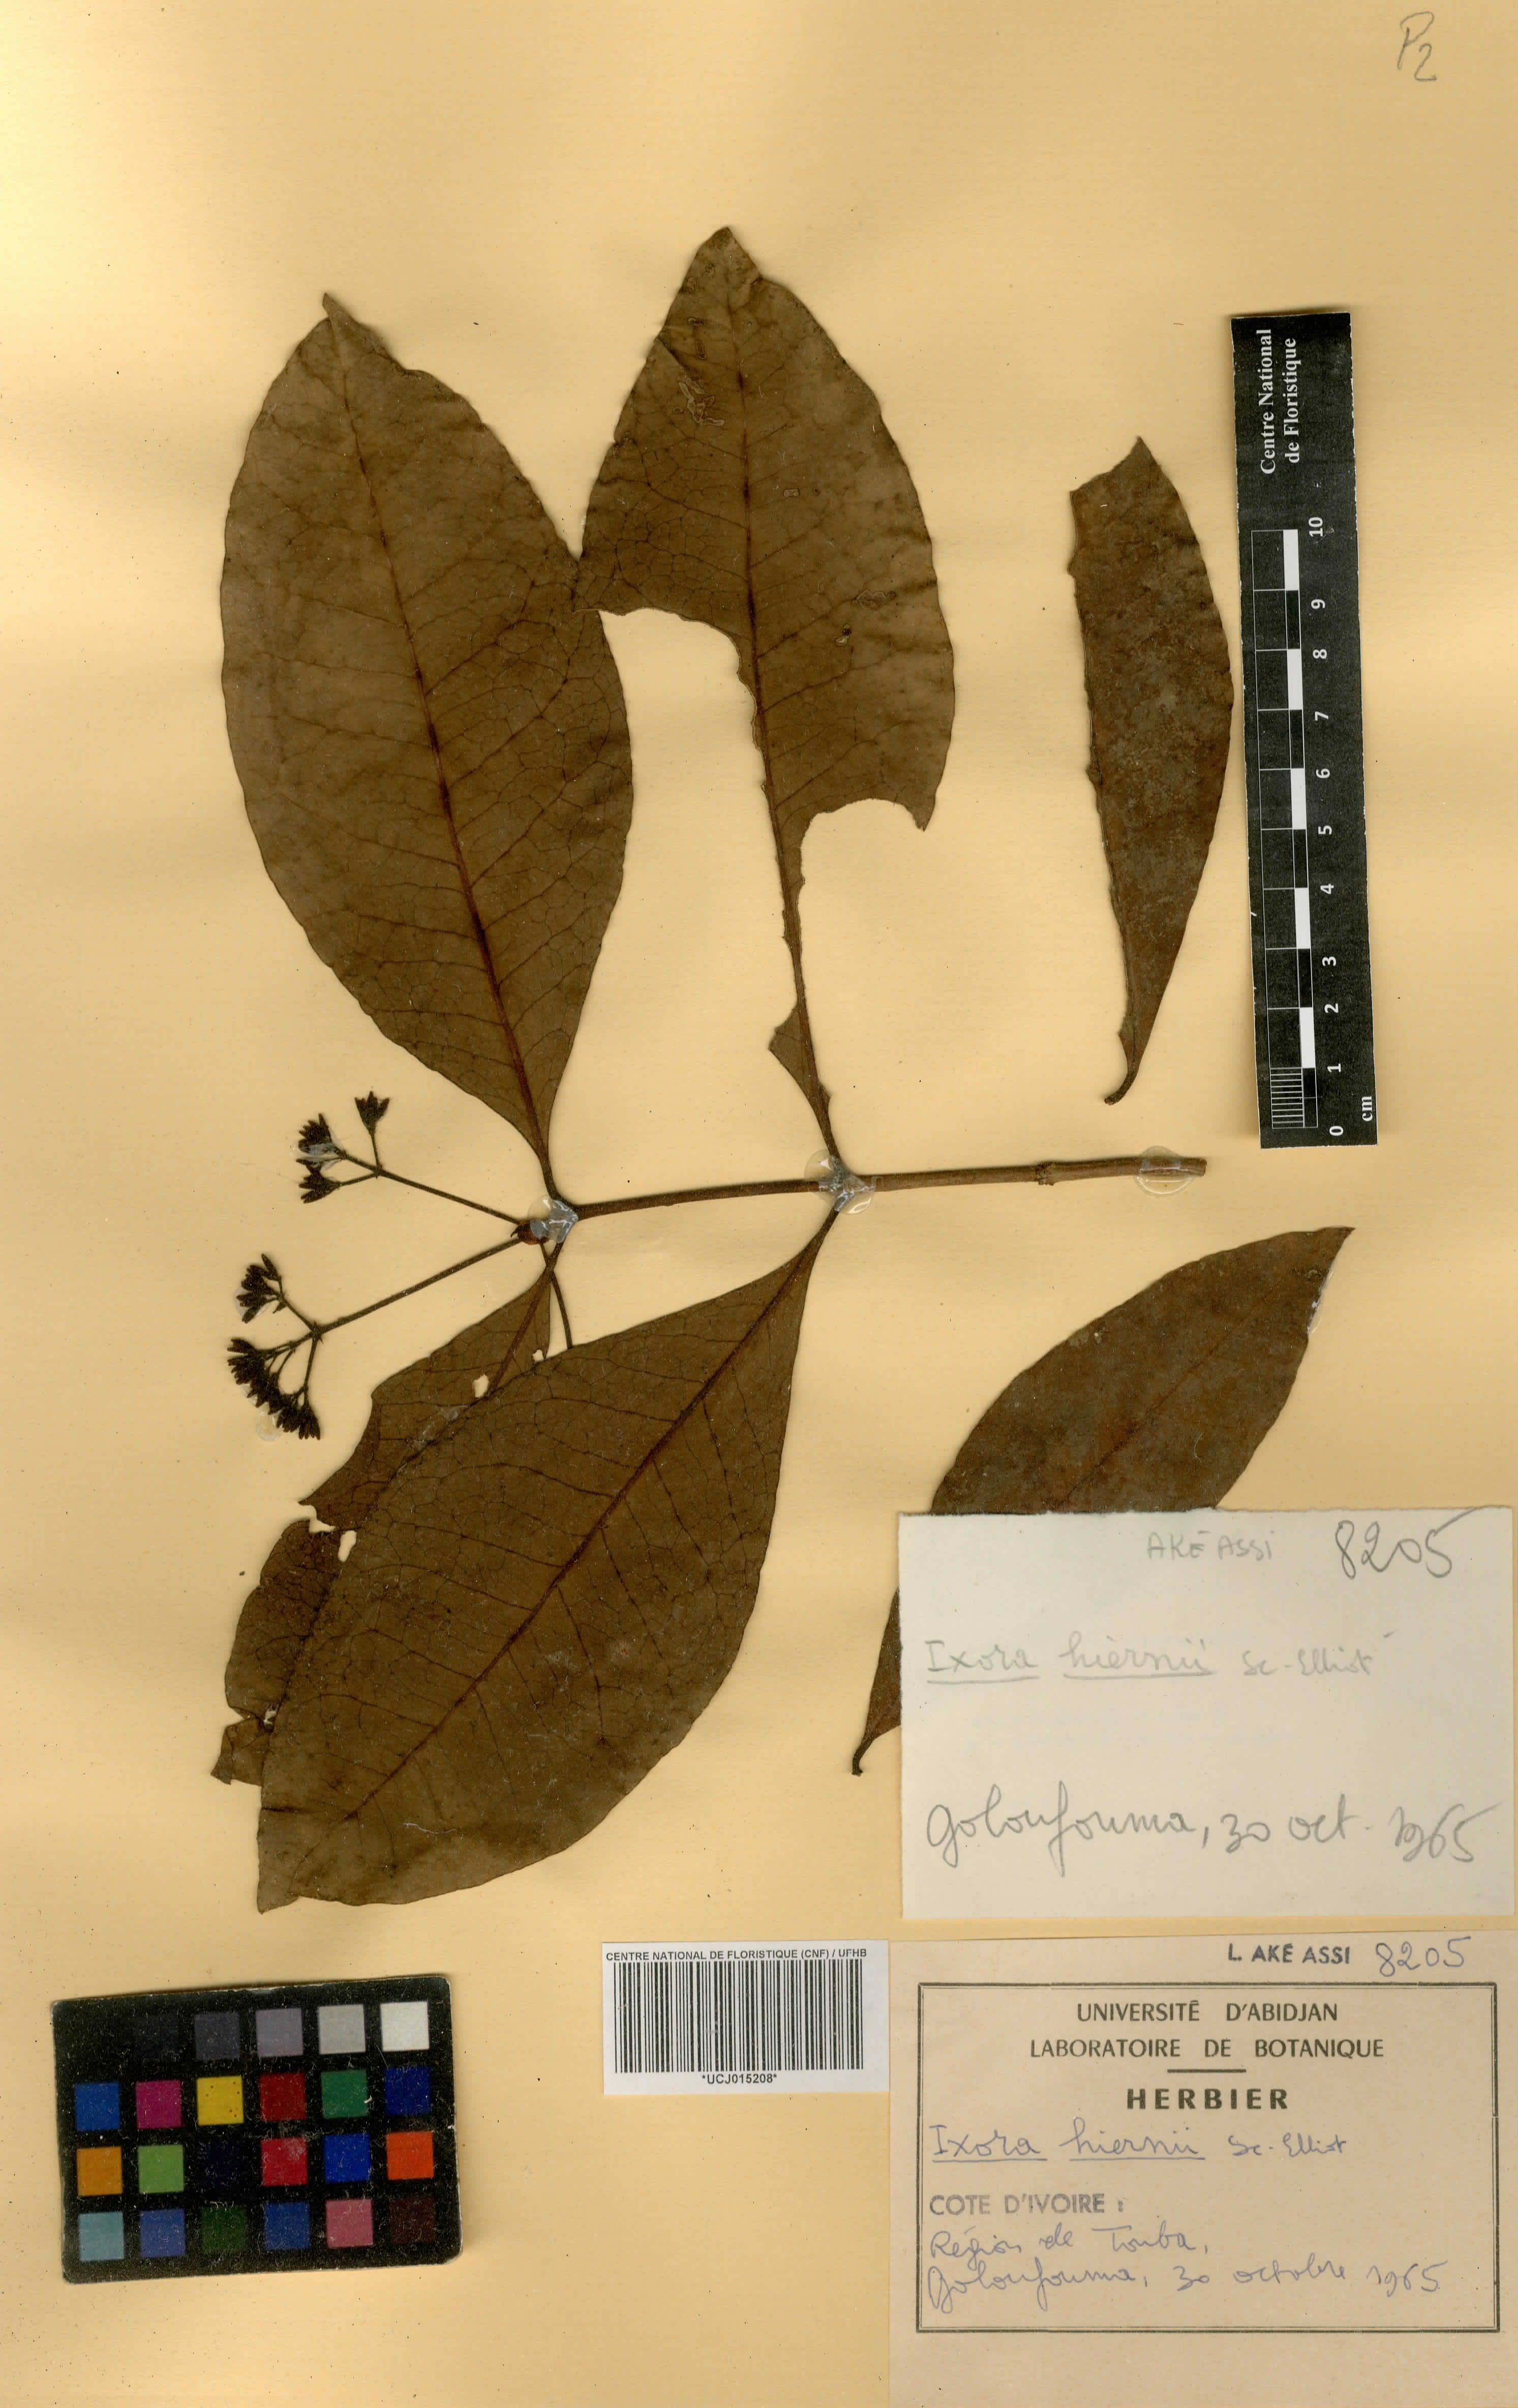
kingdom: Plantae
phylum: Tracheophyta
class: Magnoliopsida
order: Gentianales
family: Rubiaceae
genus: Ixora
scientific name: Ixora hiernii
